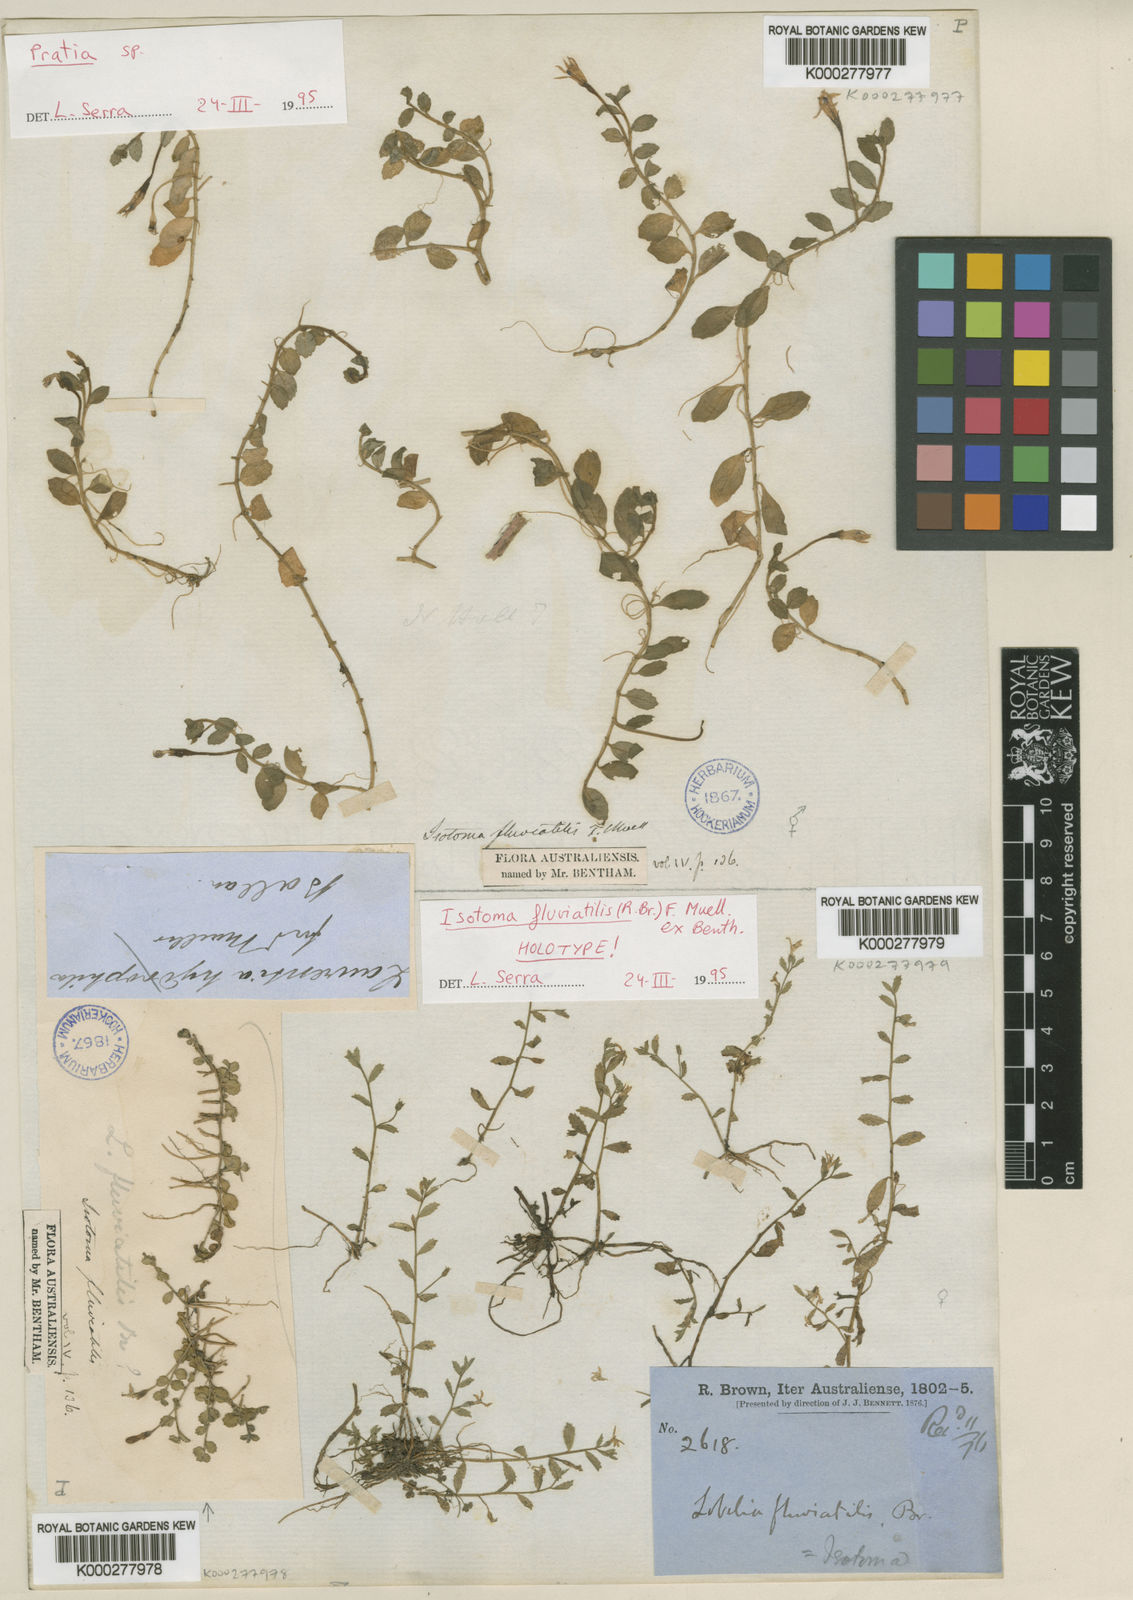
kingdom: Plantae
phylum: Tracheophyta
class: Magnoliopsida
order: Asterales
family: Campanulaceae
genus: Isotoma
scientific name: Isotoma
